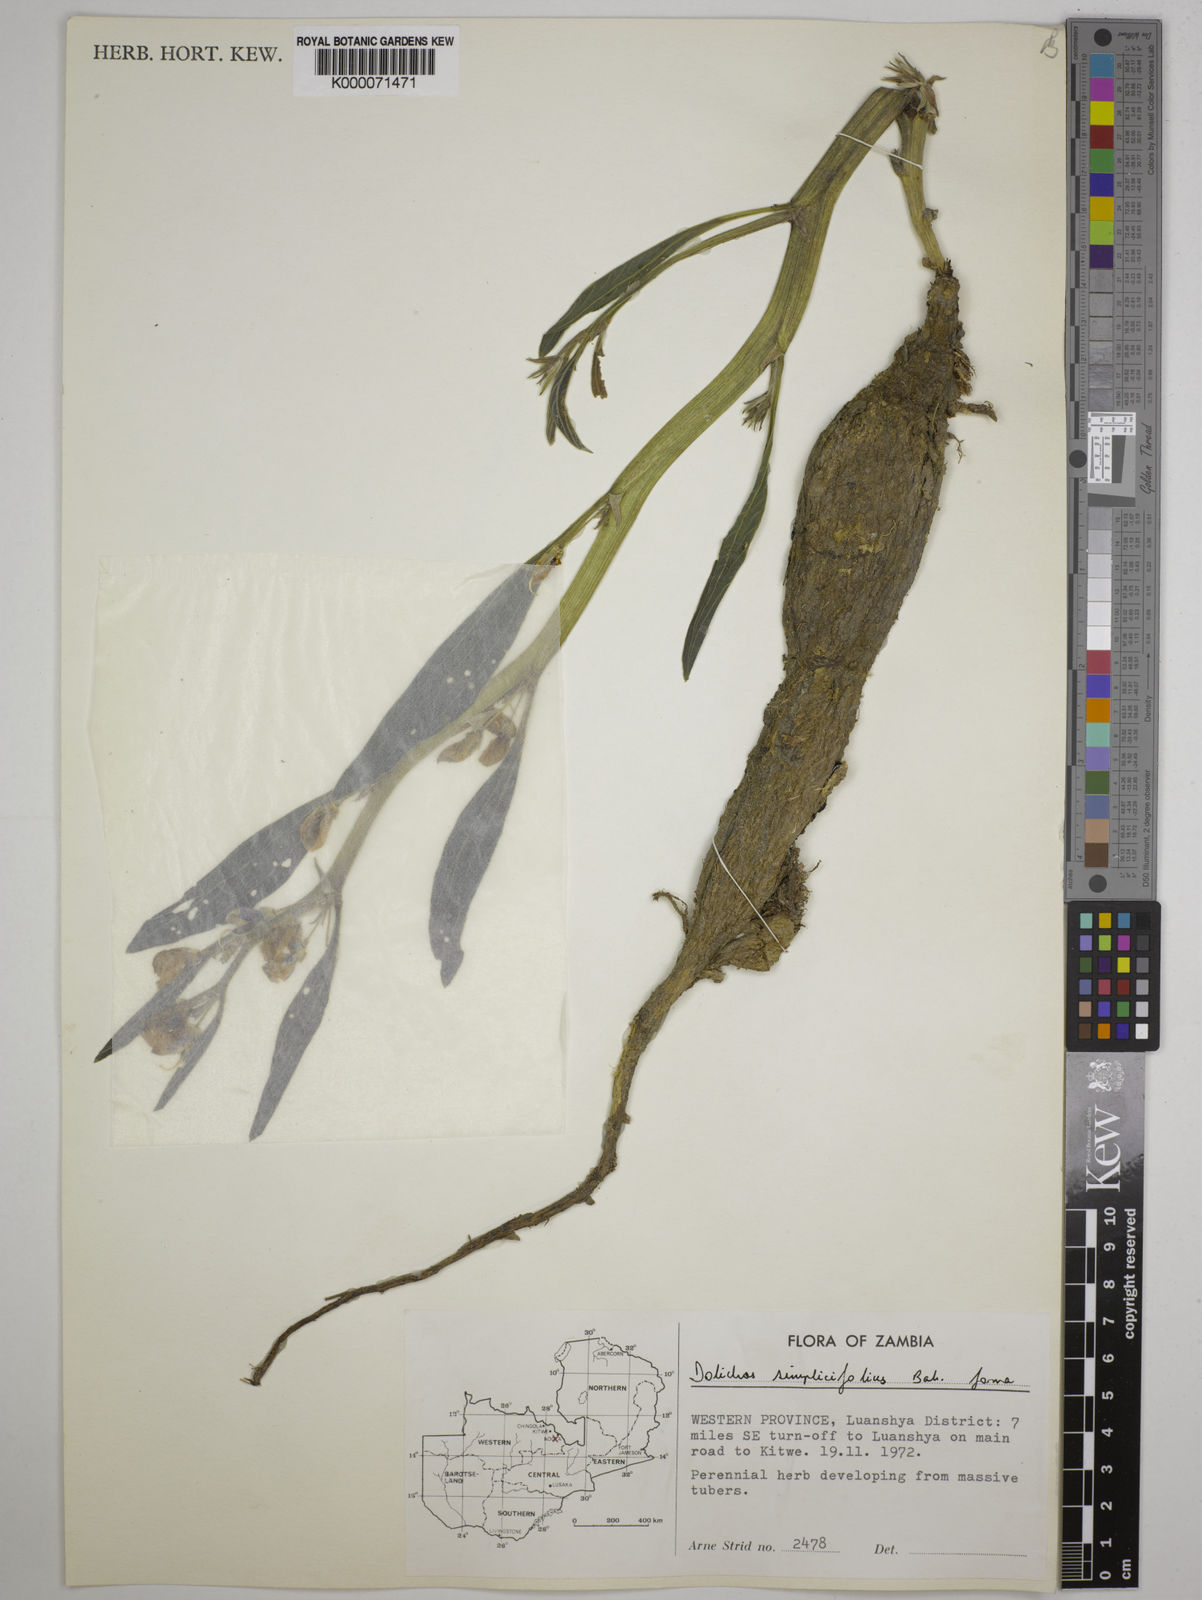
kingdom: Plantae
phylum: Tracheophyta
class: Magnoliopsida
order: Fabales
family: Fabaceae
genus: Dolichos
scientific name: Dolichos simplicifolius
